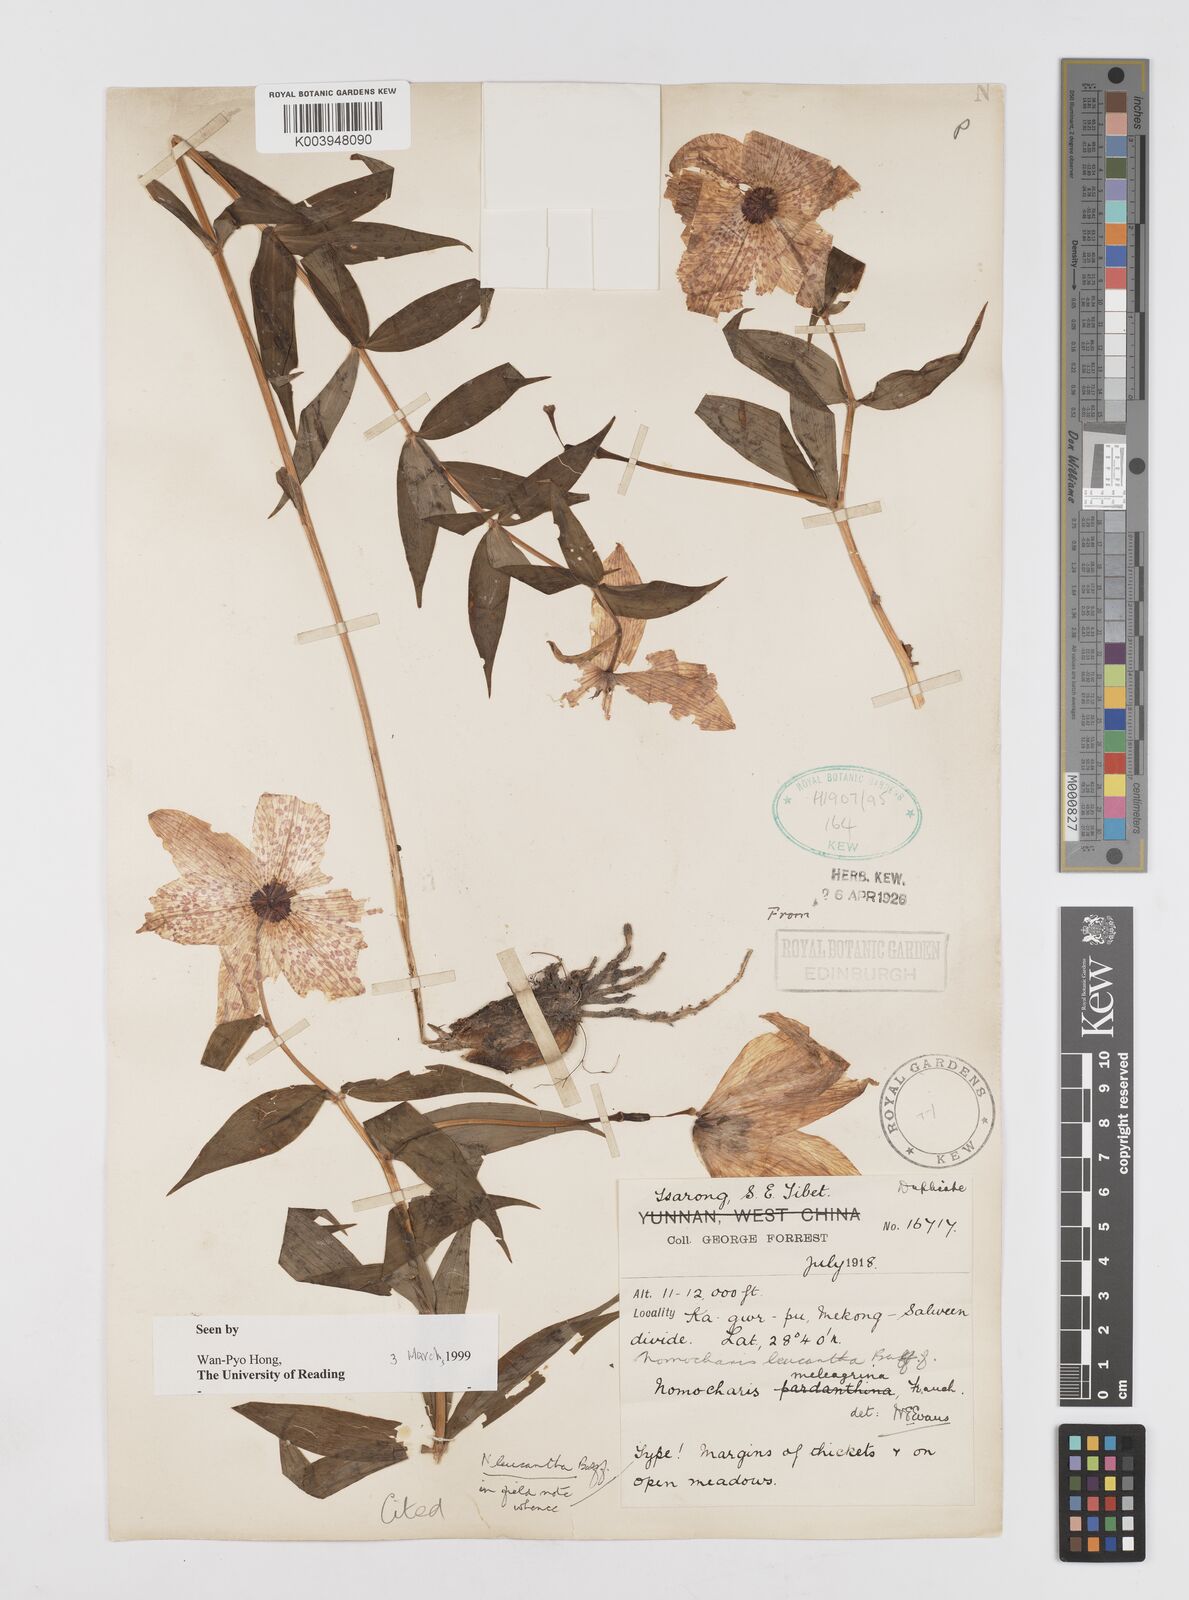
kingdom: Plantae
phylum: Tracheophyta
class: Liliopsida
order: Liliales
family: Liliaceae
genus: Lilium
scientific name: Lilium pardanthinum
